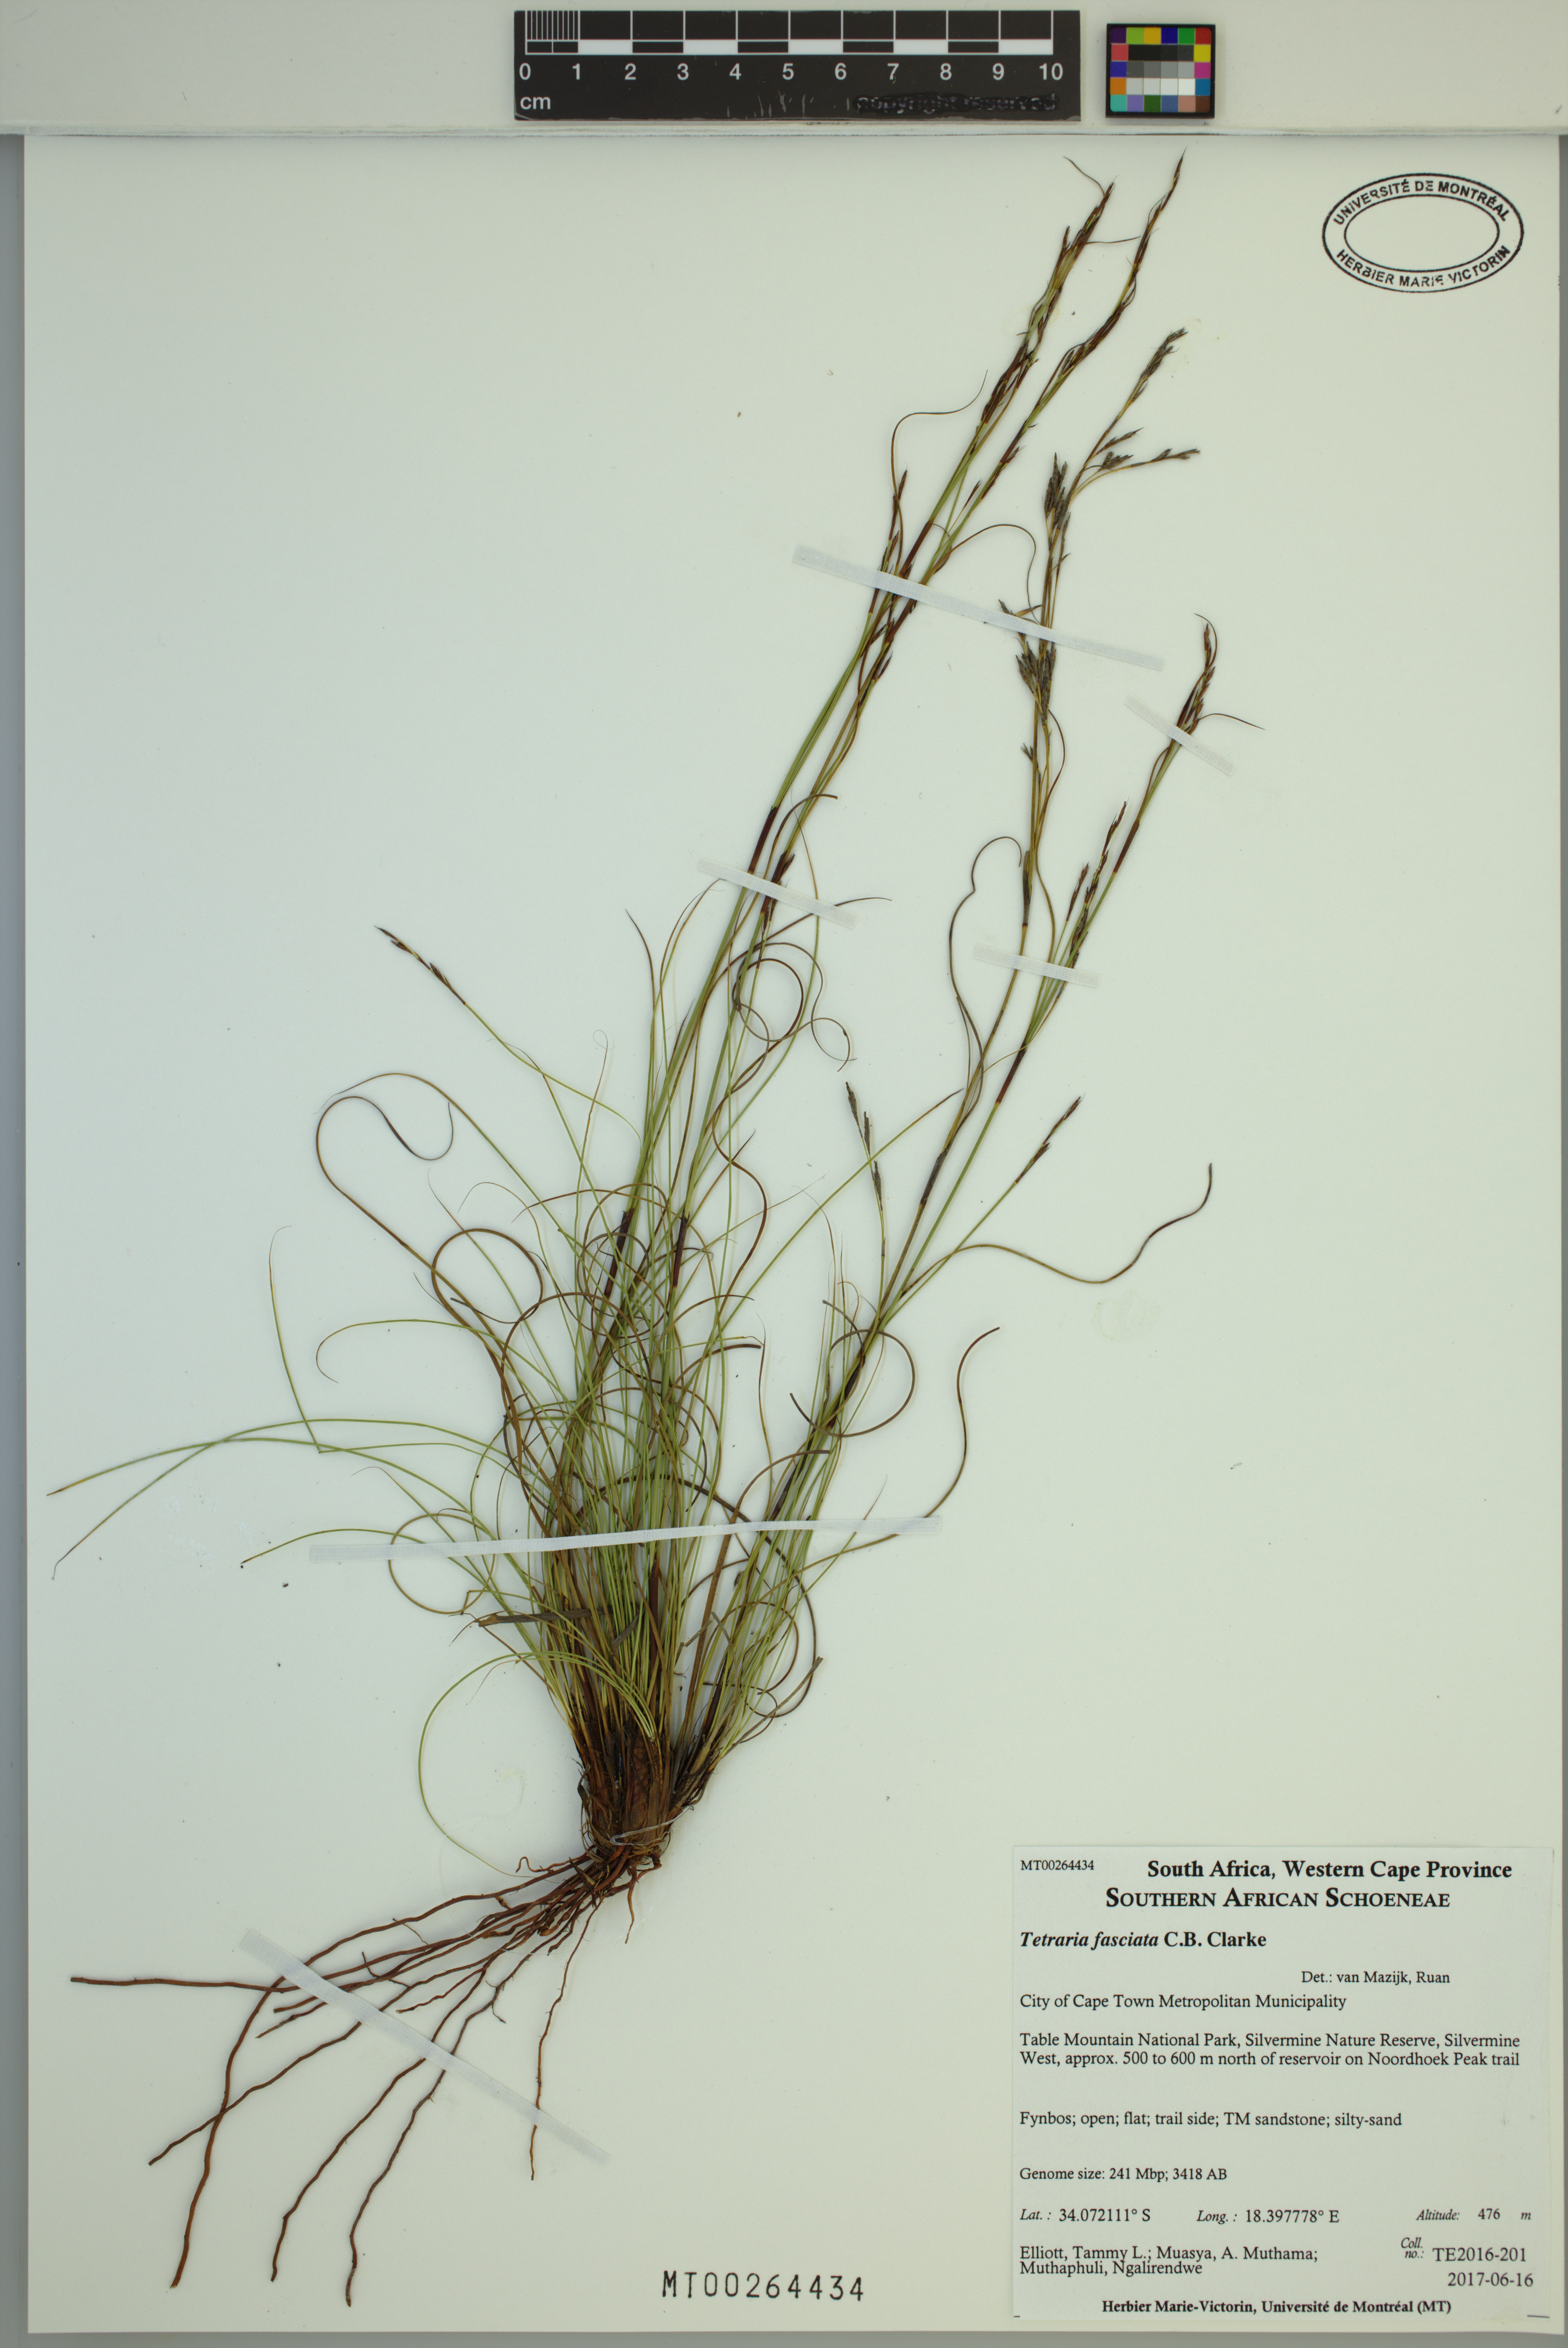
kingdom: Plantae
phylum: Tracheophyta
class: Liliopsida
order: Poales
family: Cyperaceae
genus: Tetraria
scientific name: Tetraria fasciata
